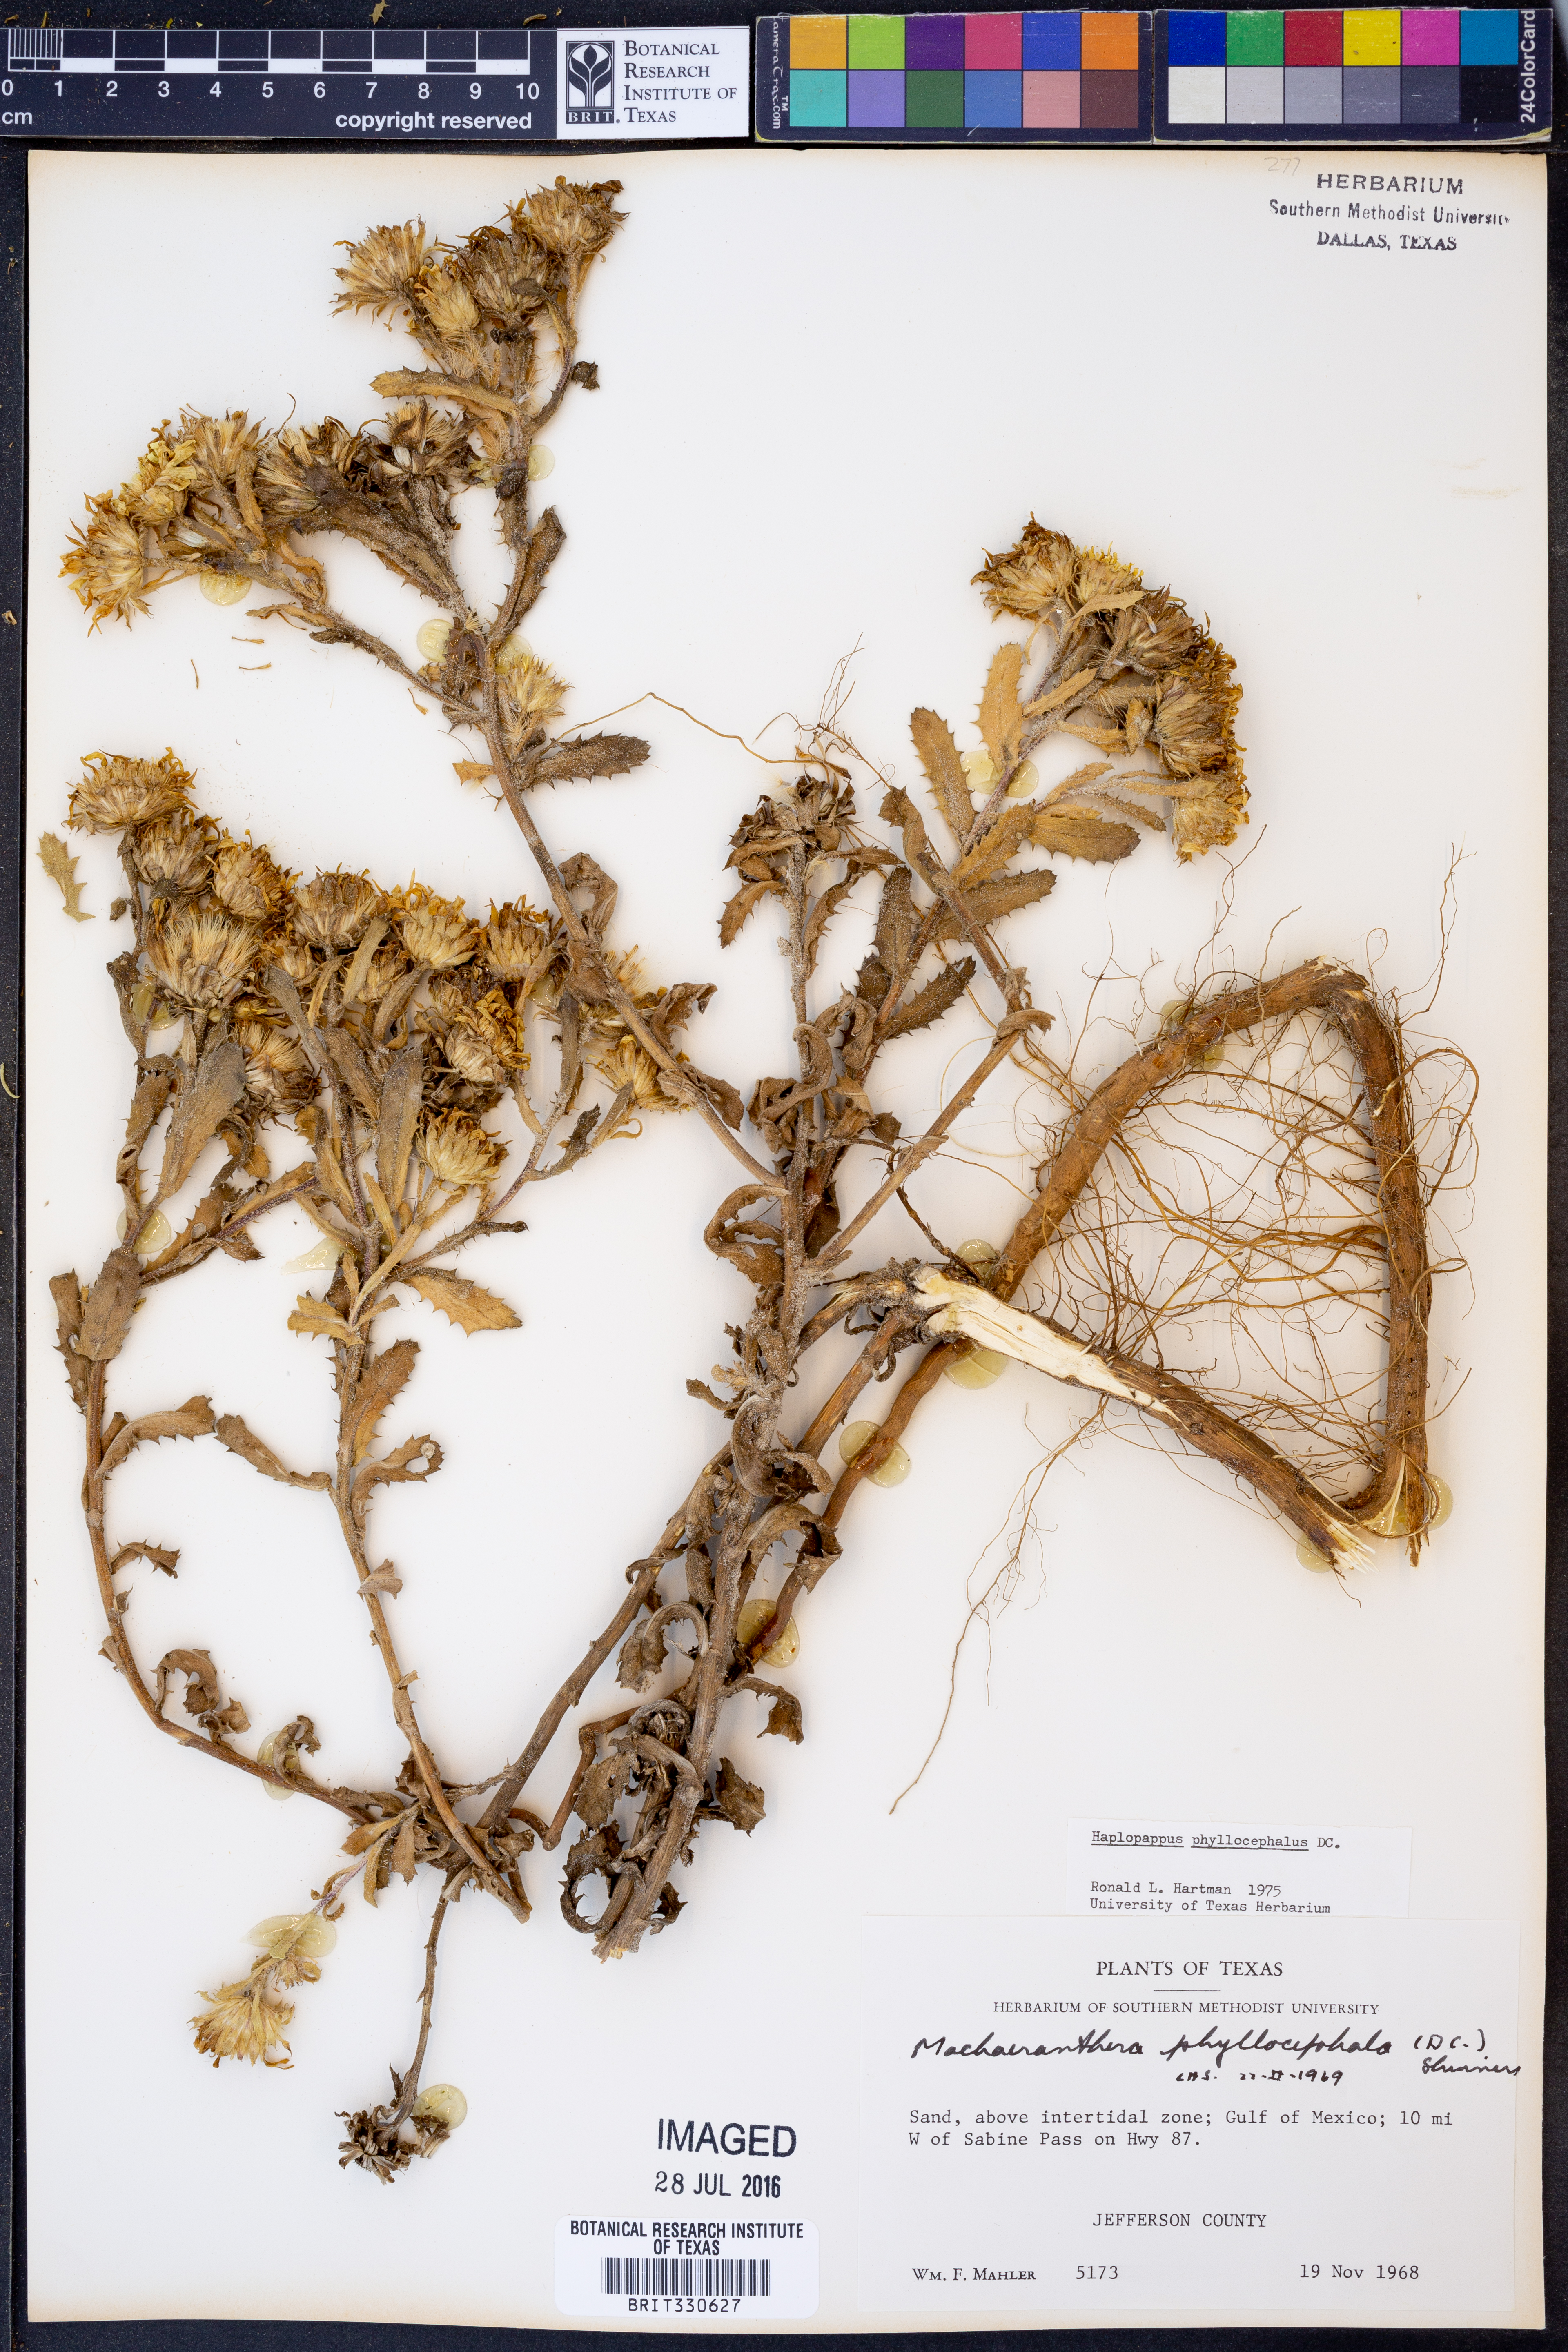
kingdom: Plantae
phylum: Tracheophyta
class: Magnoliopsida
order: Asterales
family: Asteraceae
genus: Rayjacksonia
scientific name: Rayjacksonia phyllocephala
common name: Gulf coast camphor daisy
